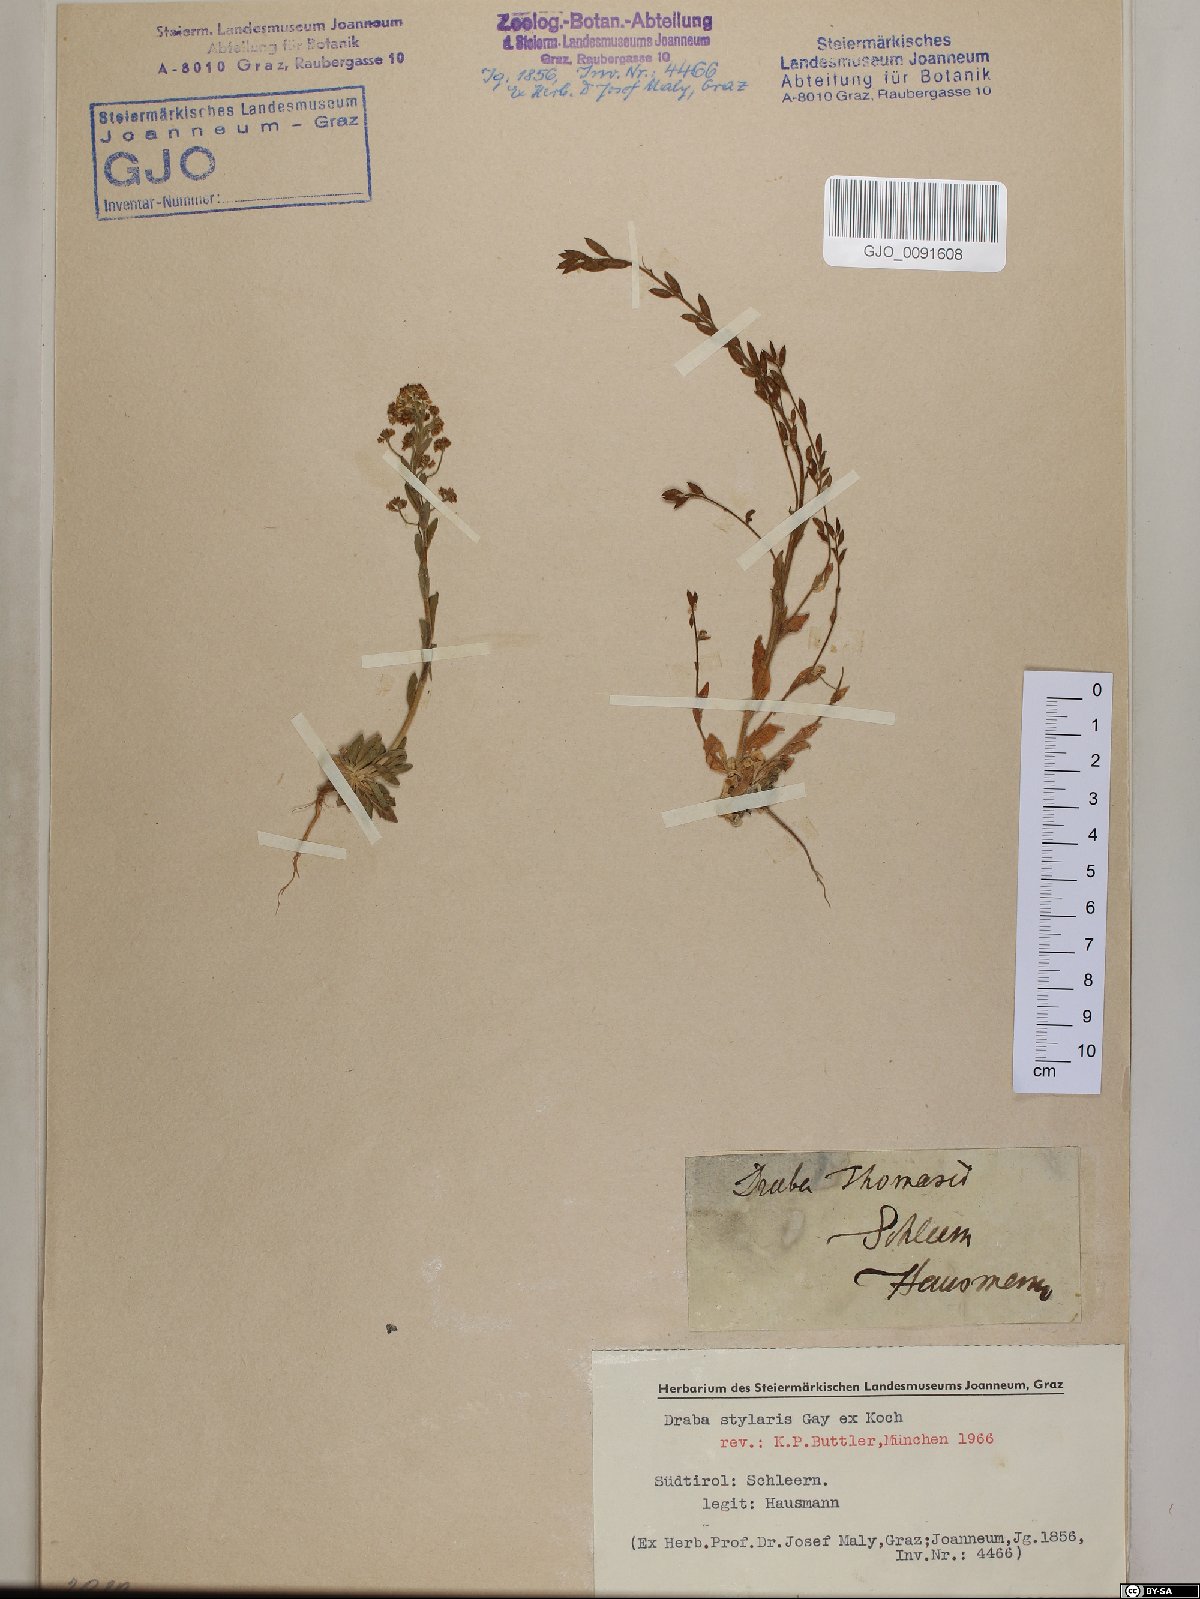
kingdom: Plantae
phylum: Tracheophyta
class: Magnoliopsida
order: Brassicales
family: Brassicaceae
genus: Draba
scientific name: Draba thomasii
